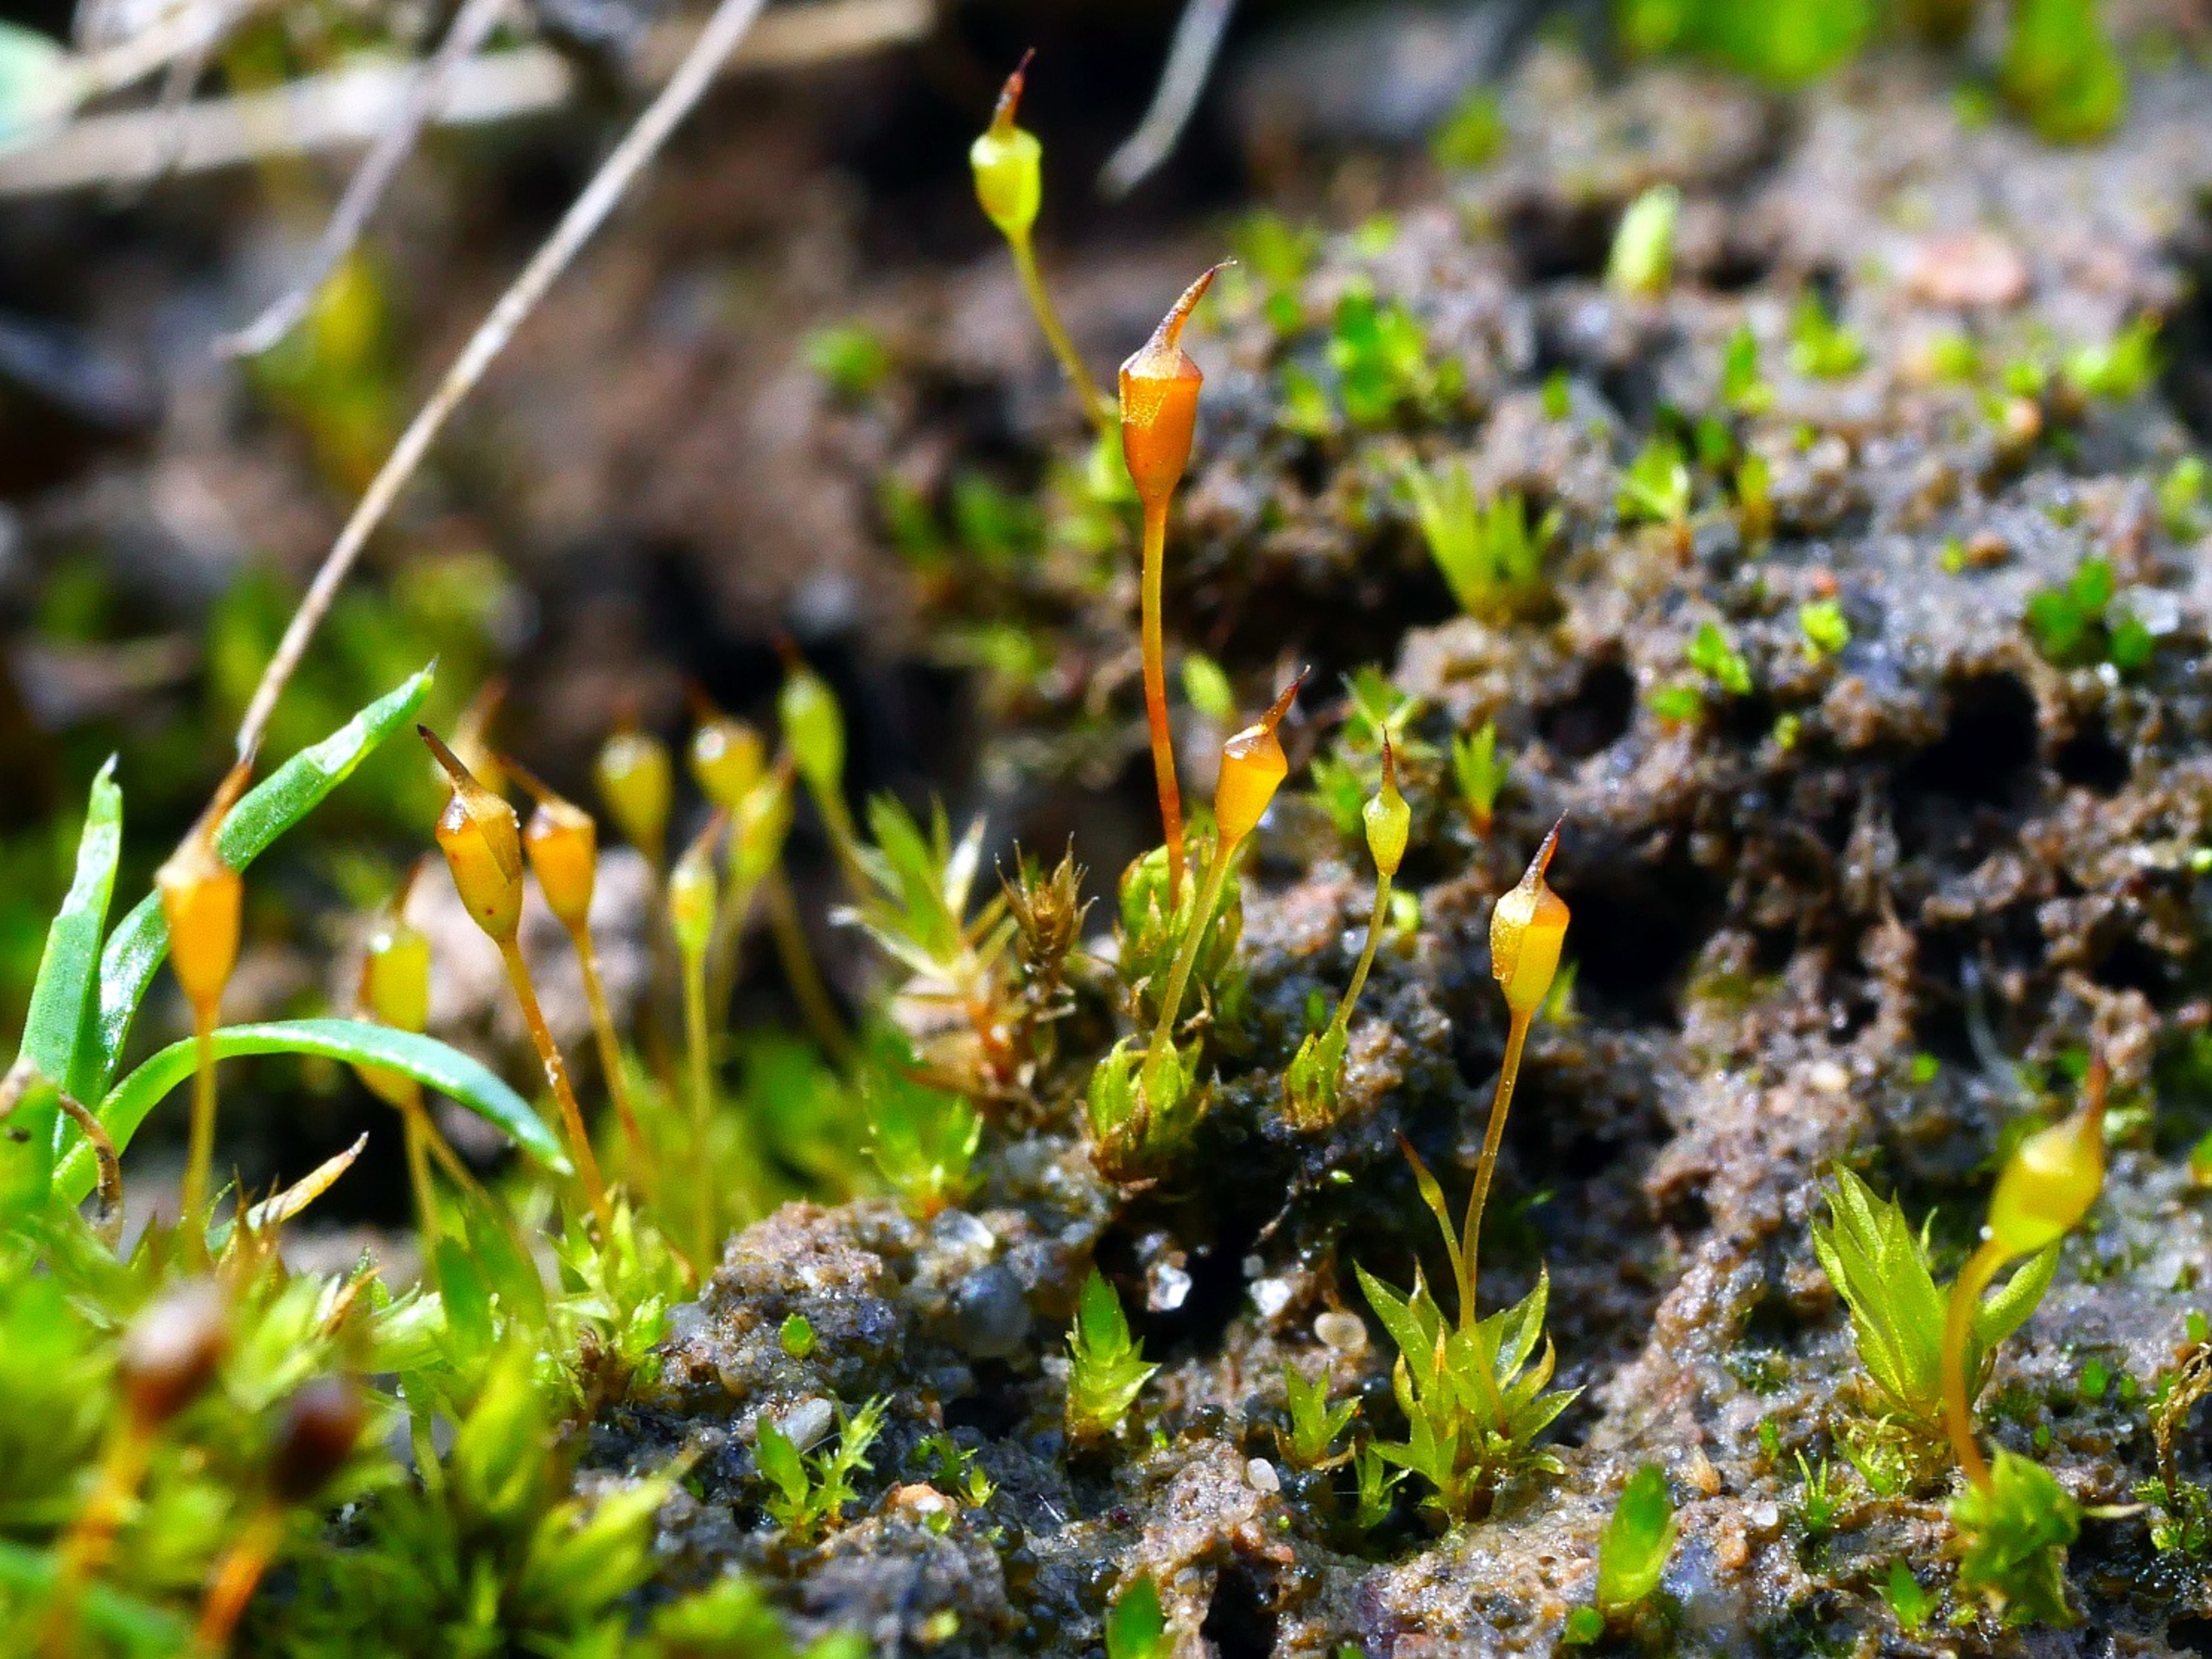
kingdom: Plantae
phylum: Bryophyta
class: Bryopsida
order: Pottiales
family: Pottiaceae
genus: Tortula
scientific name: Tortula truncata
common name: Vidmundet bægermos
